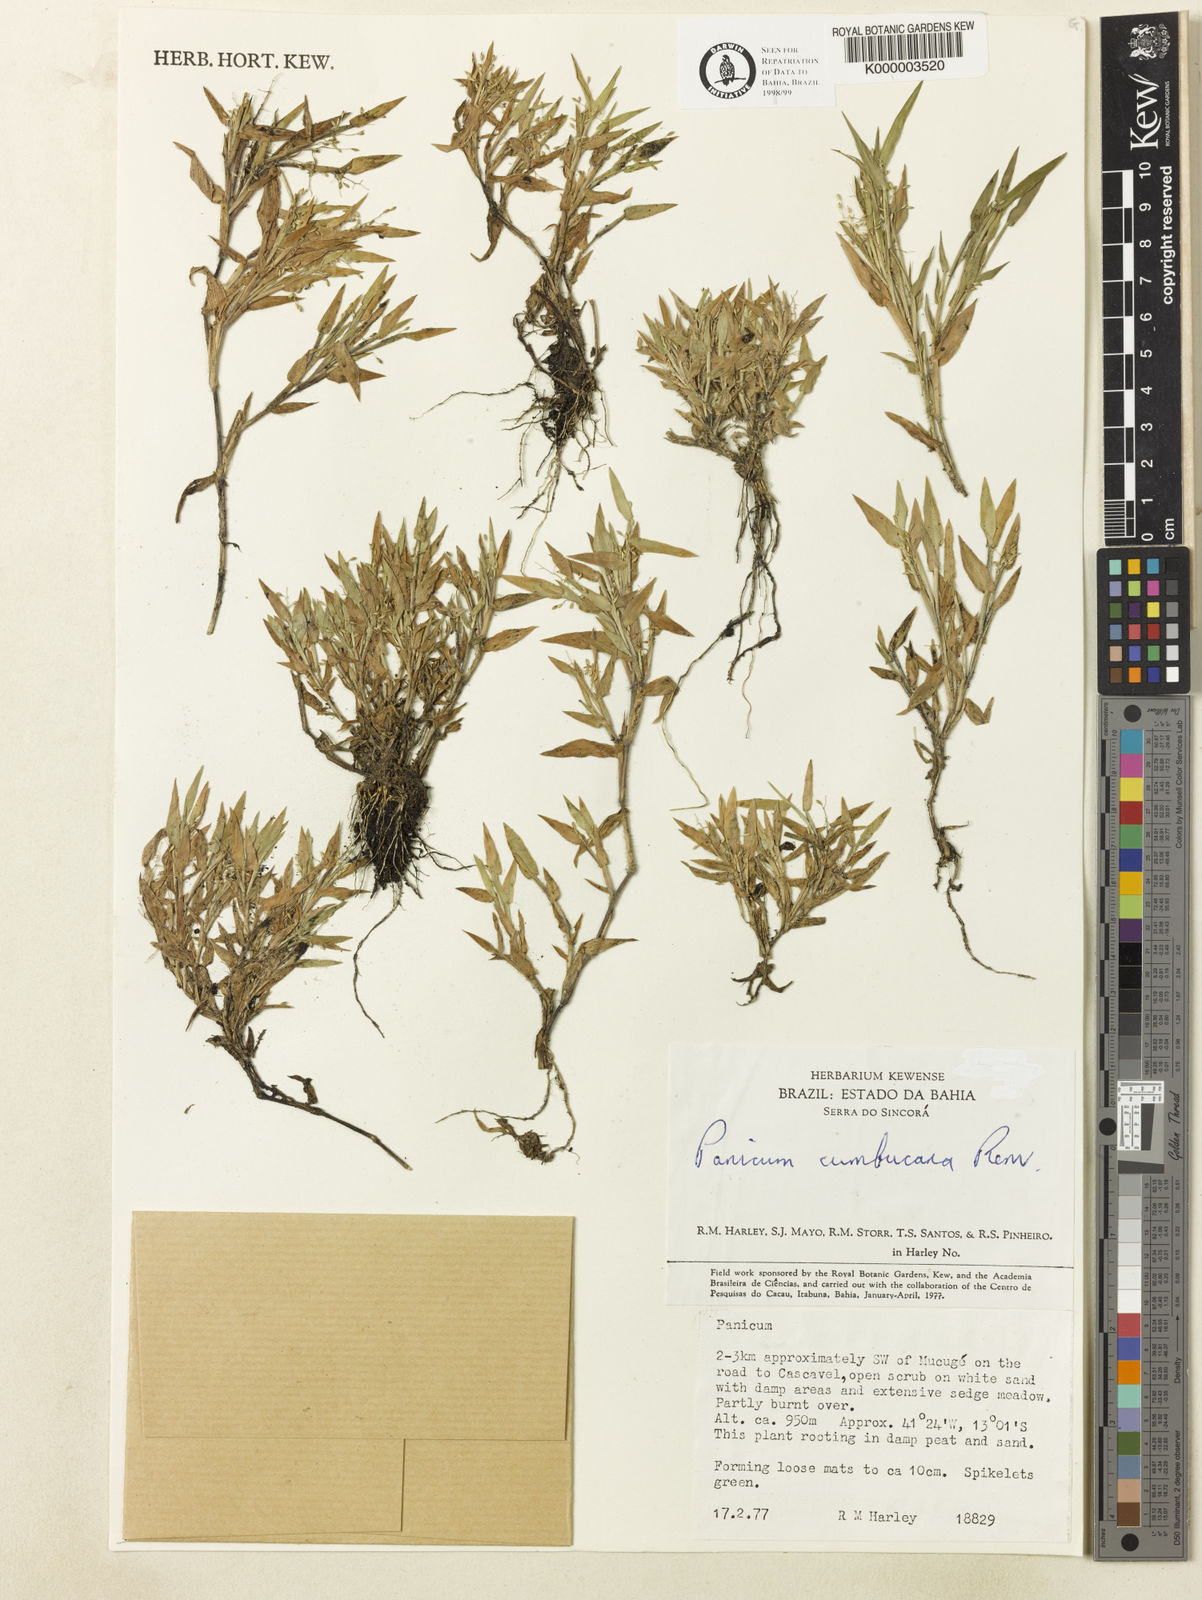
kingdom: Plantae
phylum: Tracheophyta
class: Liliopsida
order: Poales
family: Poaceae
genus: Dichanthelium
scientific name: Dichanthelium cumbucanum
